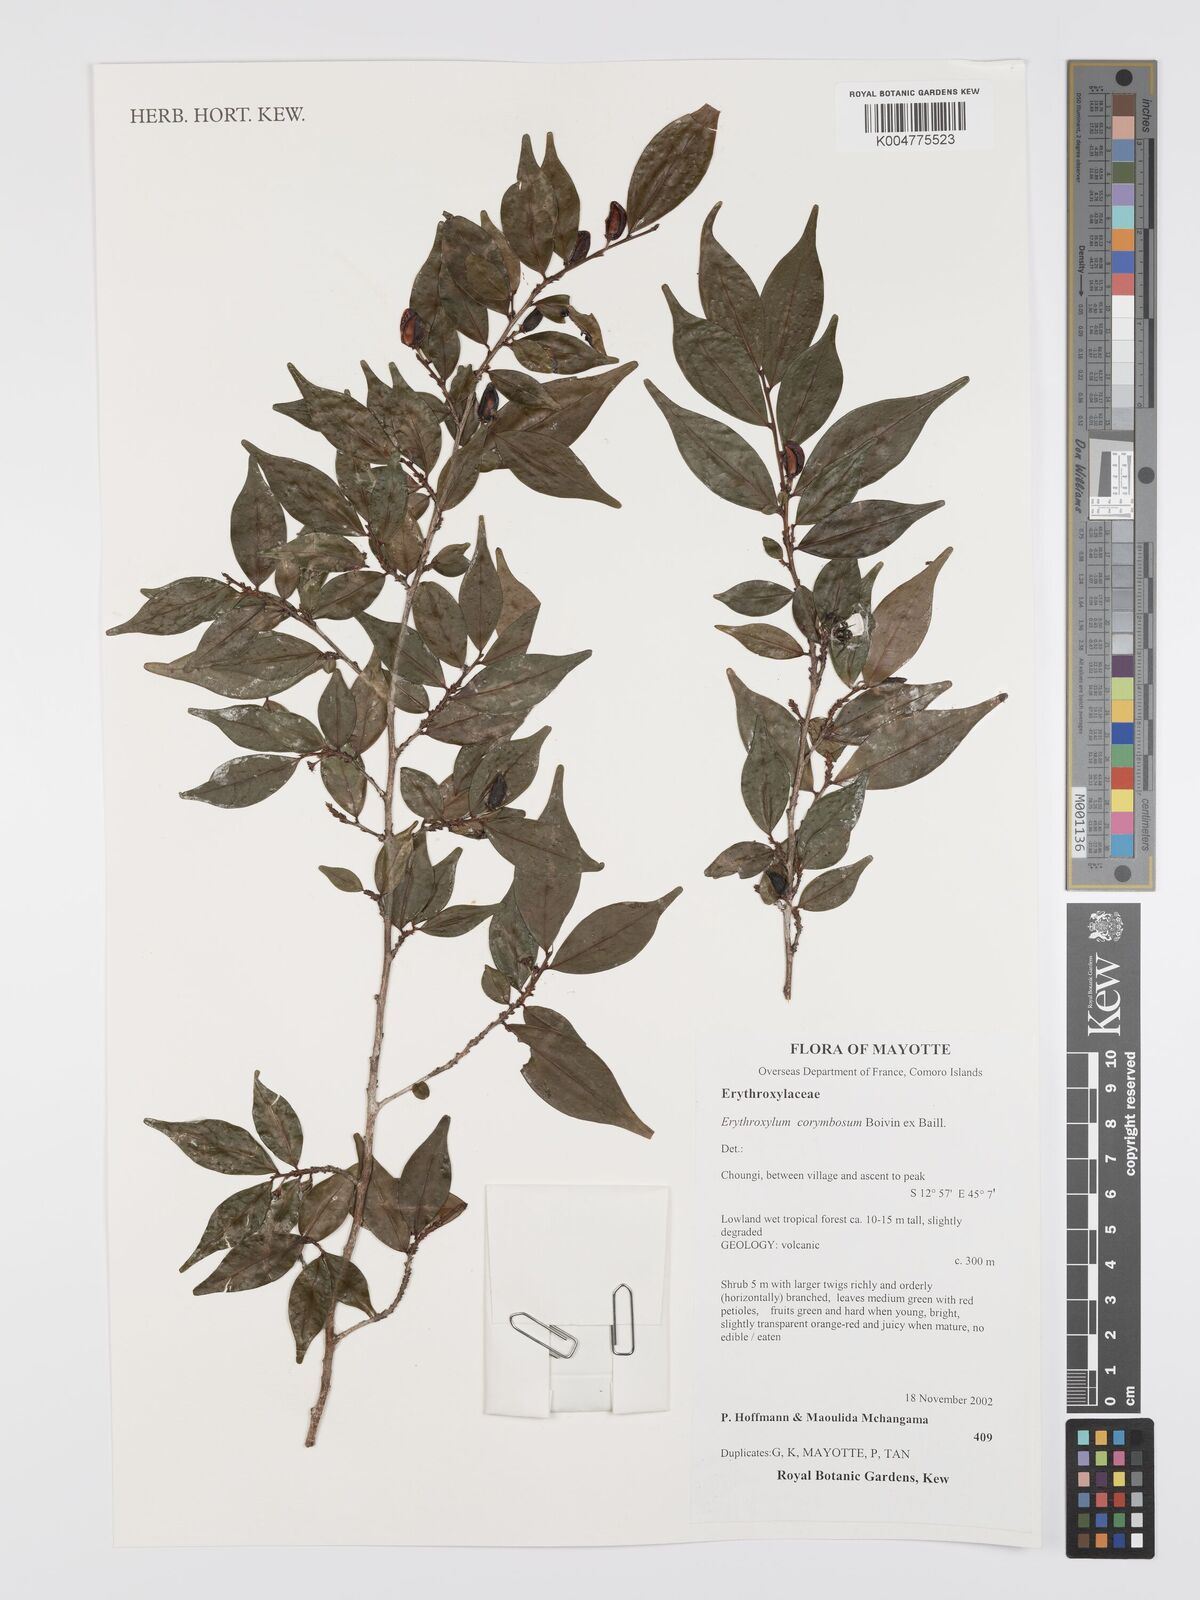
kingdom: Plantae
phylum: Tracheophyta
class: Magnoliopsida
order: Malpighiales
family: Erythroxylaceae
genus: Erythroxylum
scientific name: Erythroxylum corymbosum
